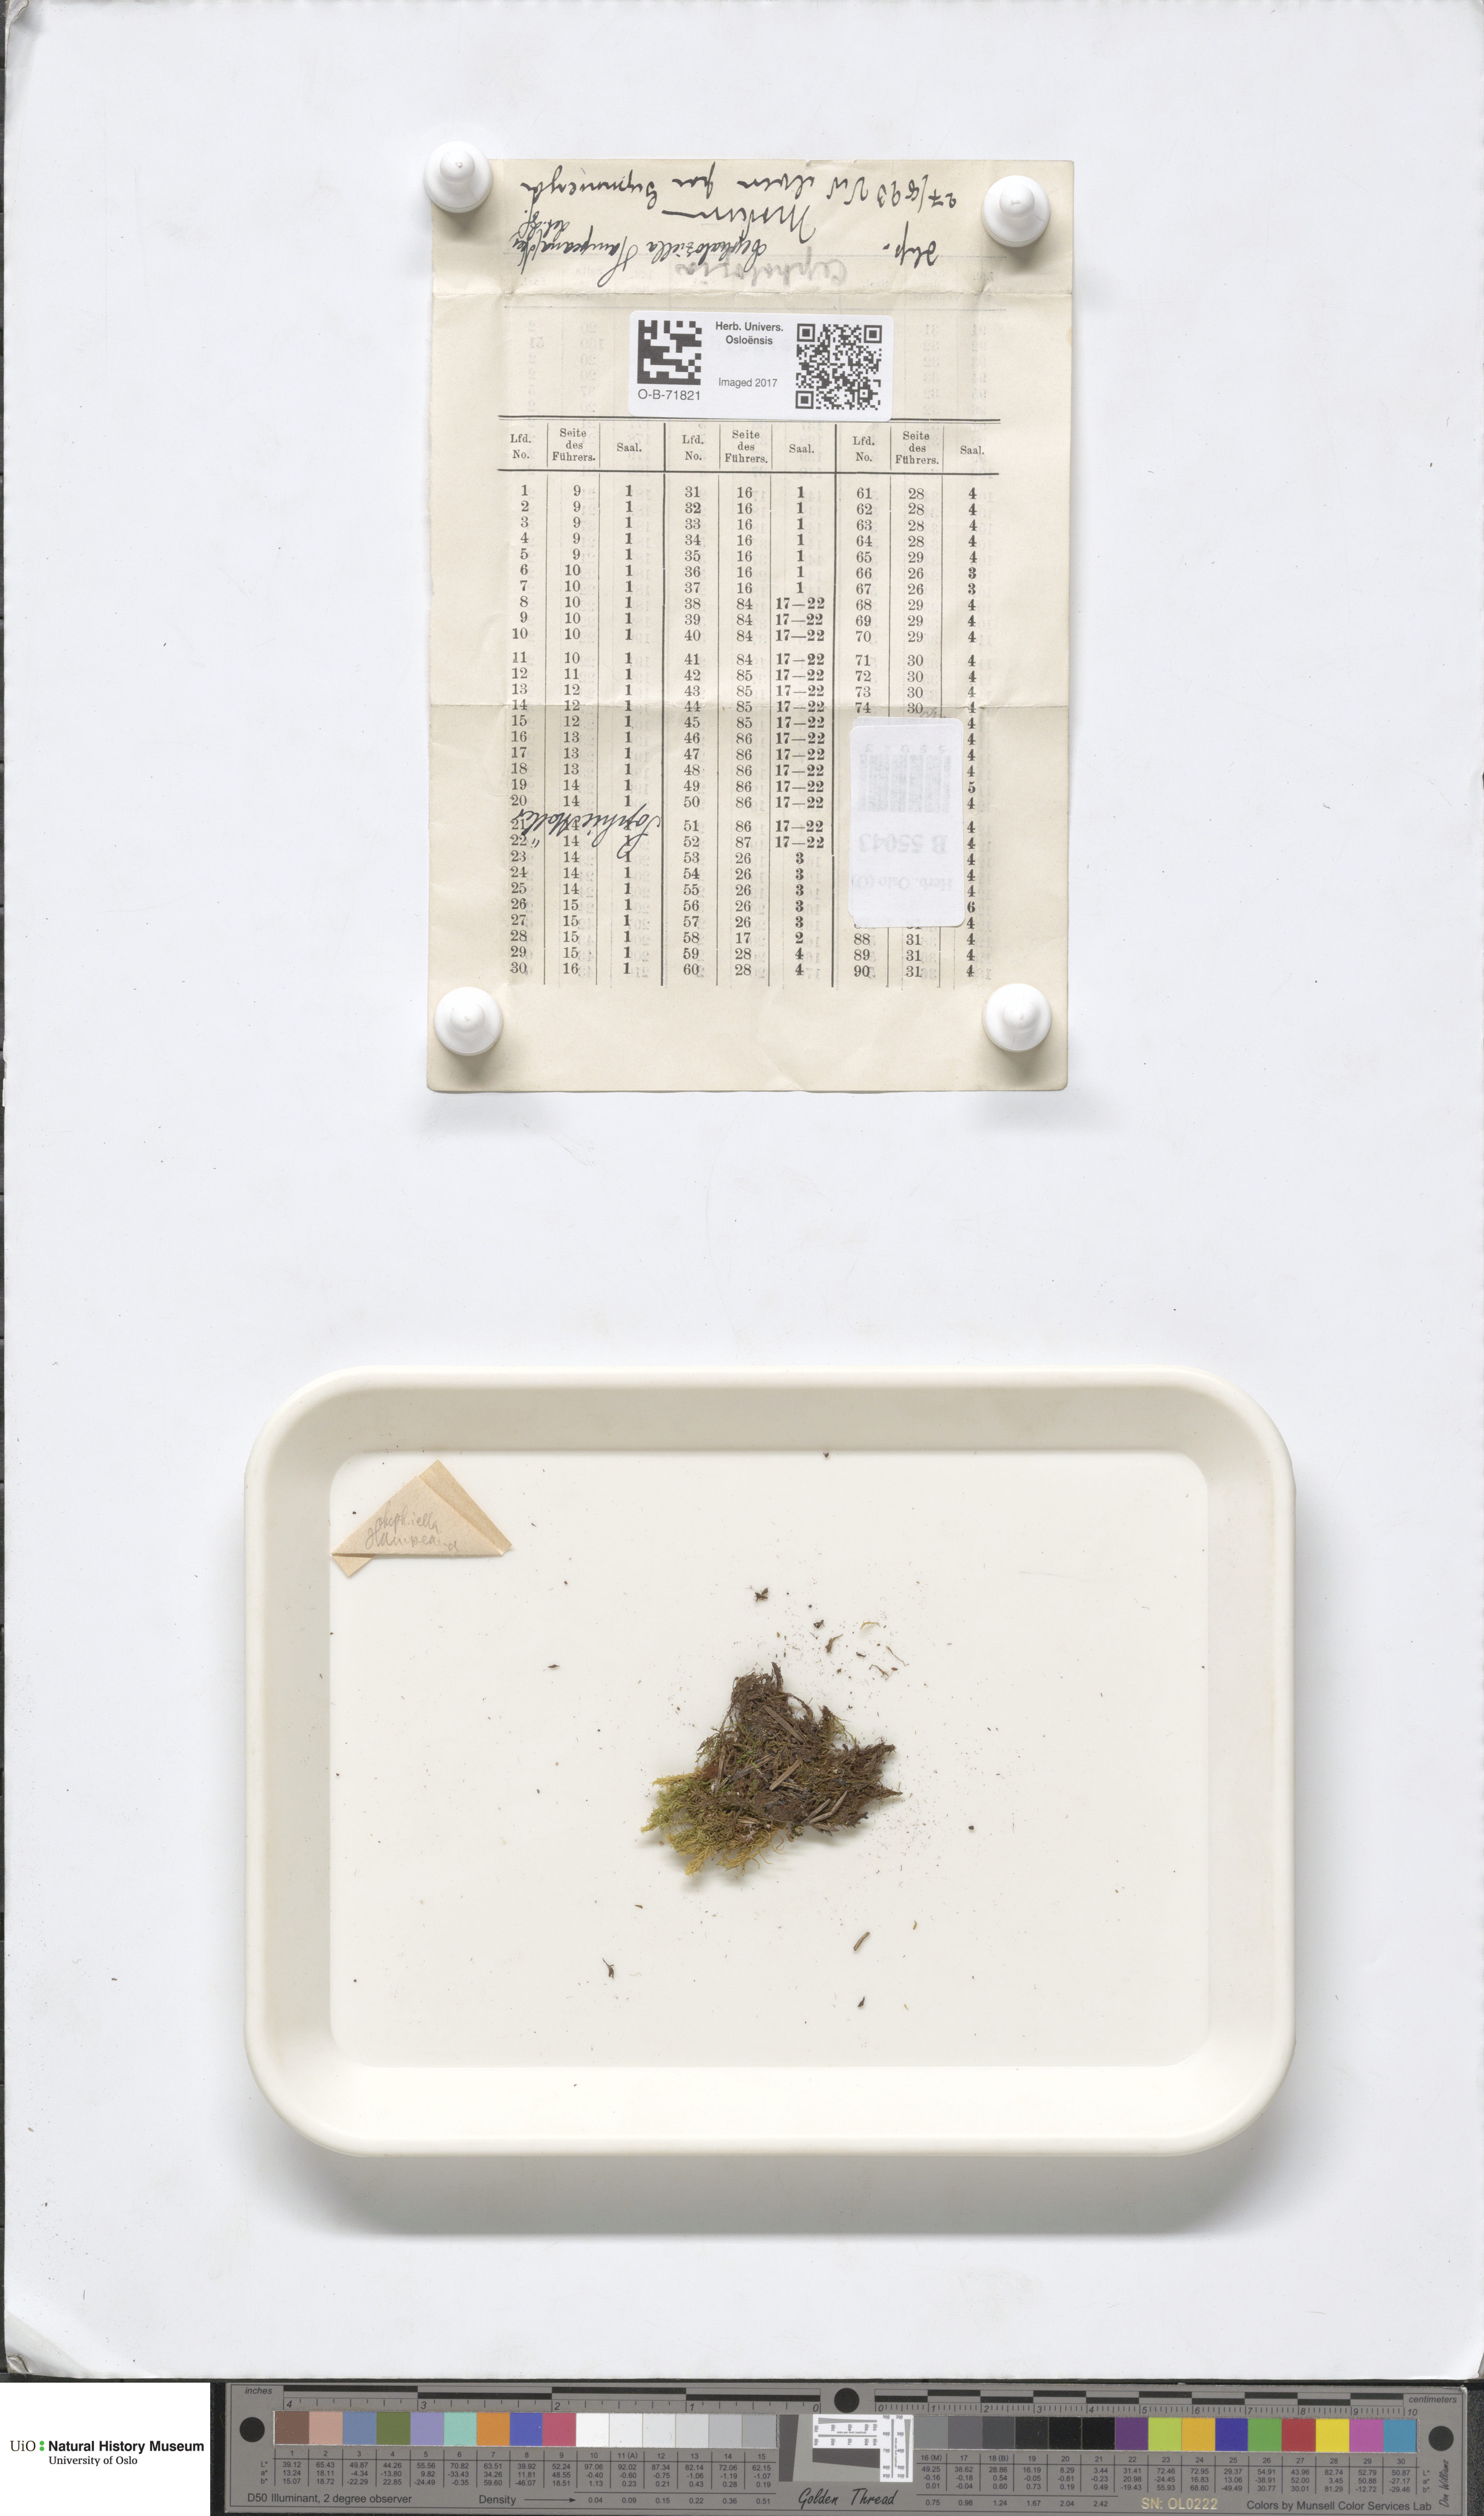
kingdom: Plantae
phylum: Marchantiophyta
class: Jungermanniopsida
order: Jungermanniales
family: Cephaloziellaceae
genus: Cephaloziella
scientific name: Cephaloziella hampeana
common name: Hampe s threadwort
